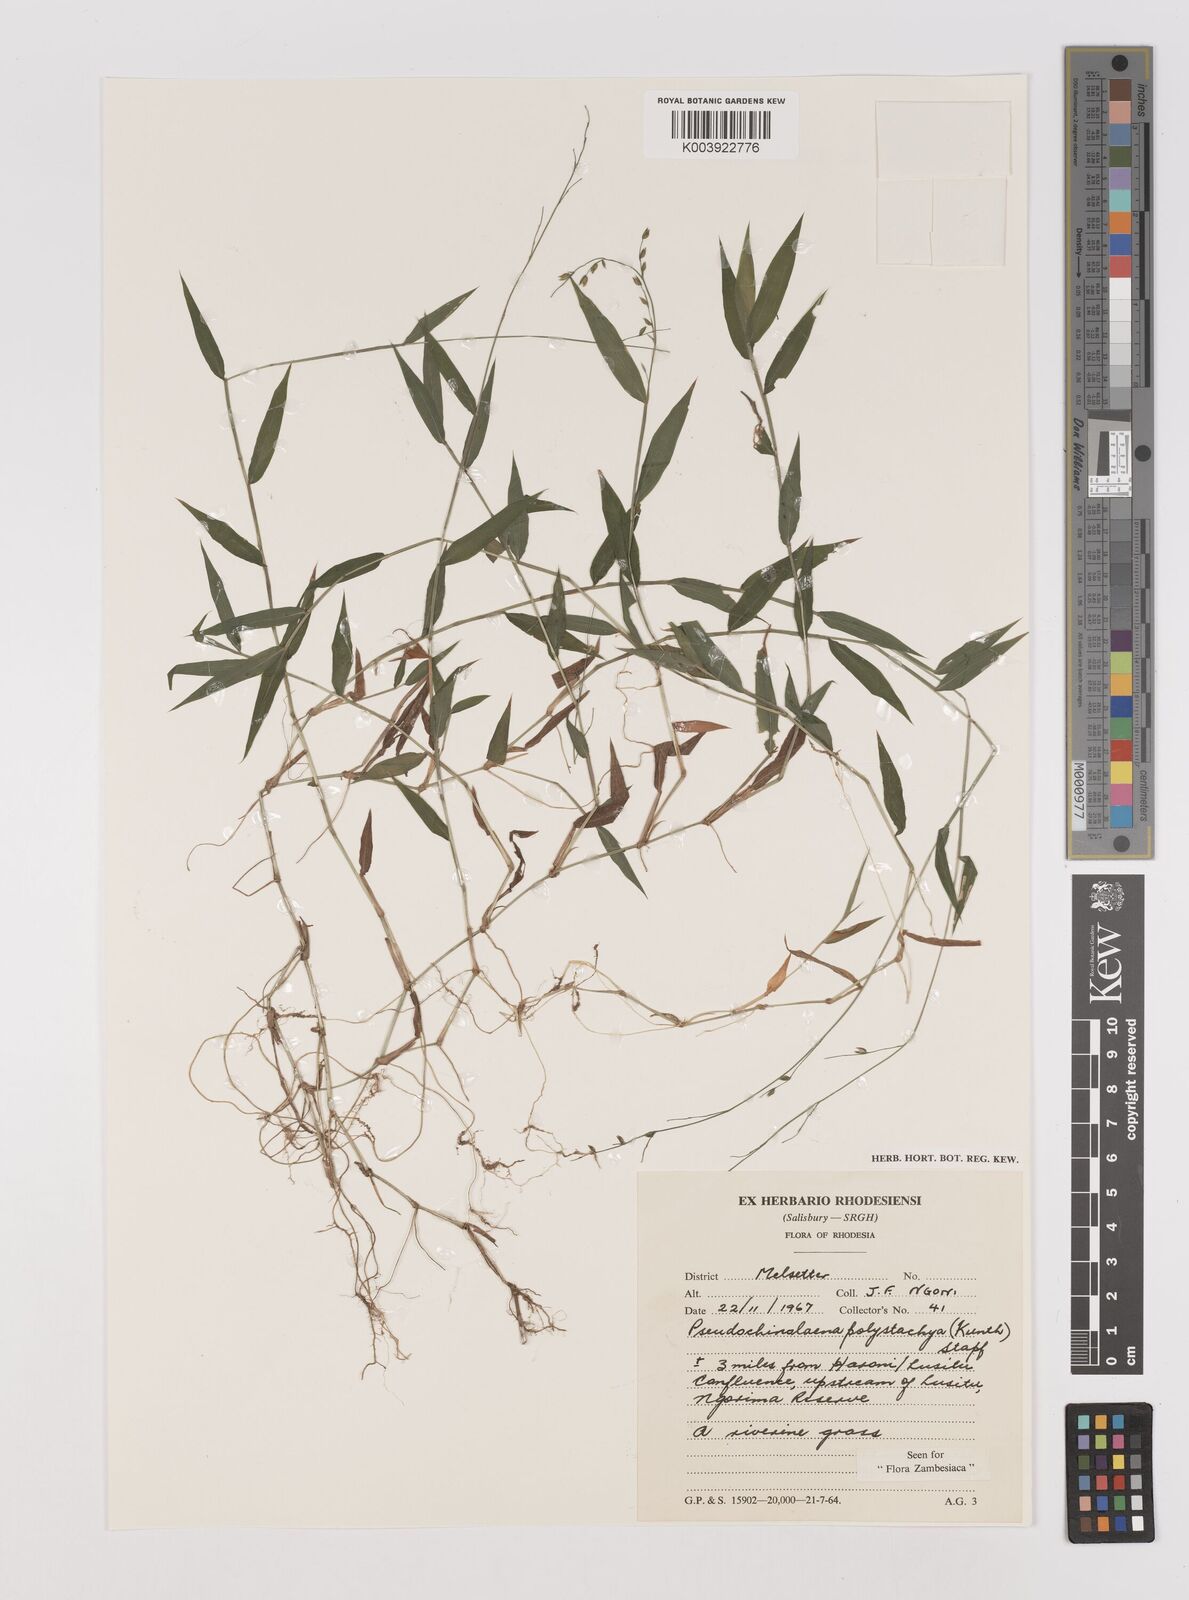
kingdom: Plantae
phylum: Tracheophyta
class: Liliopsida
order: Poales
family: Poaceae
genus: Pseudechinolaena
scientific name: Pseudechinolaena polystachya
